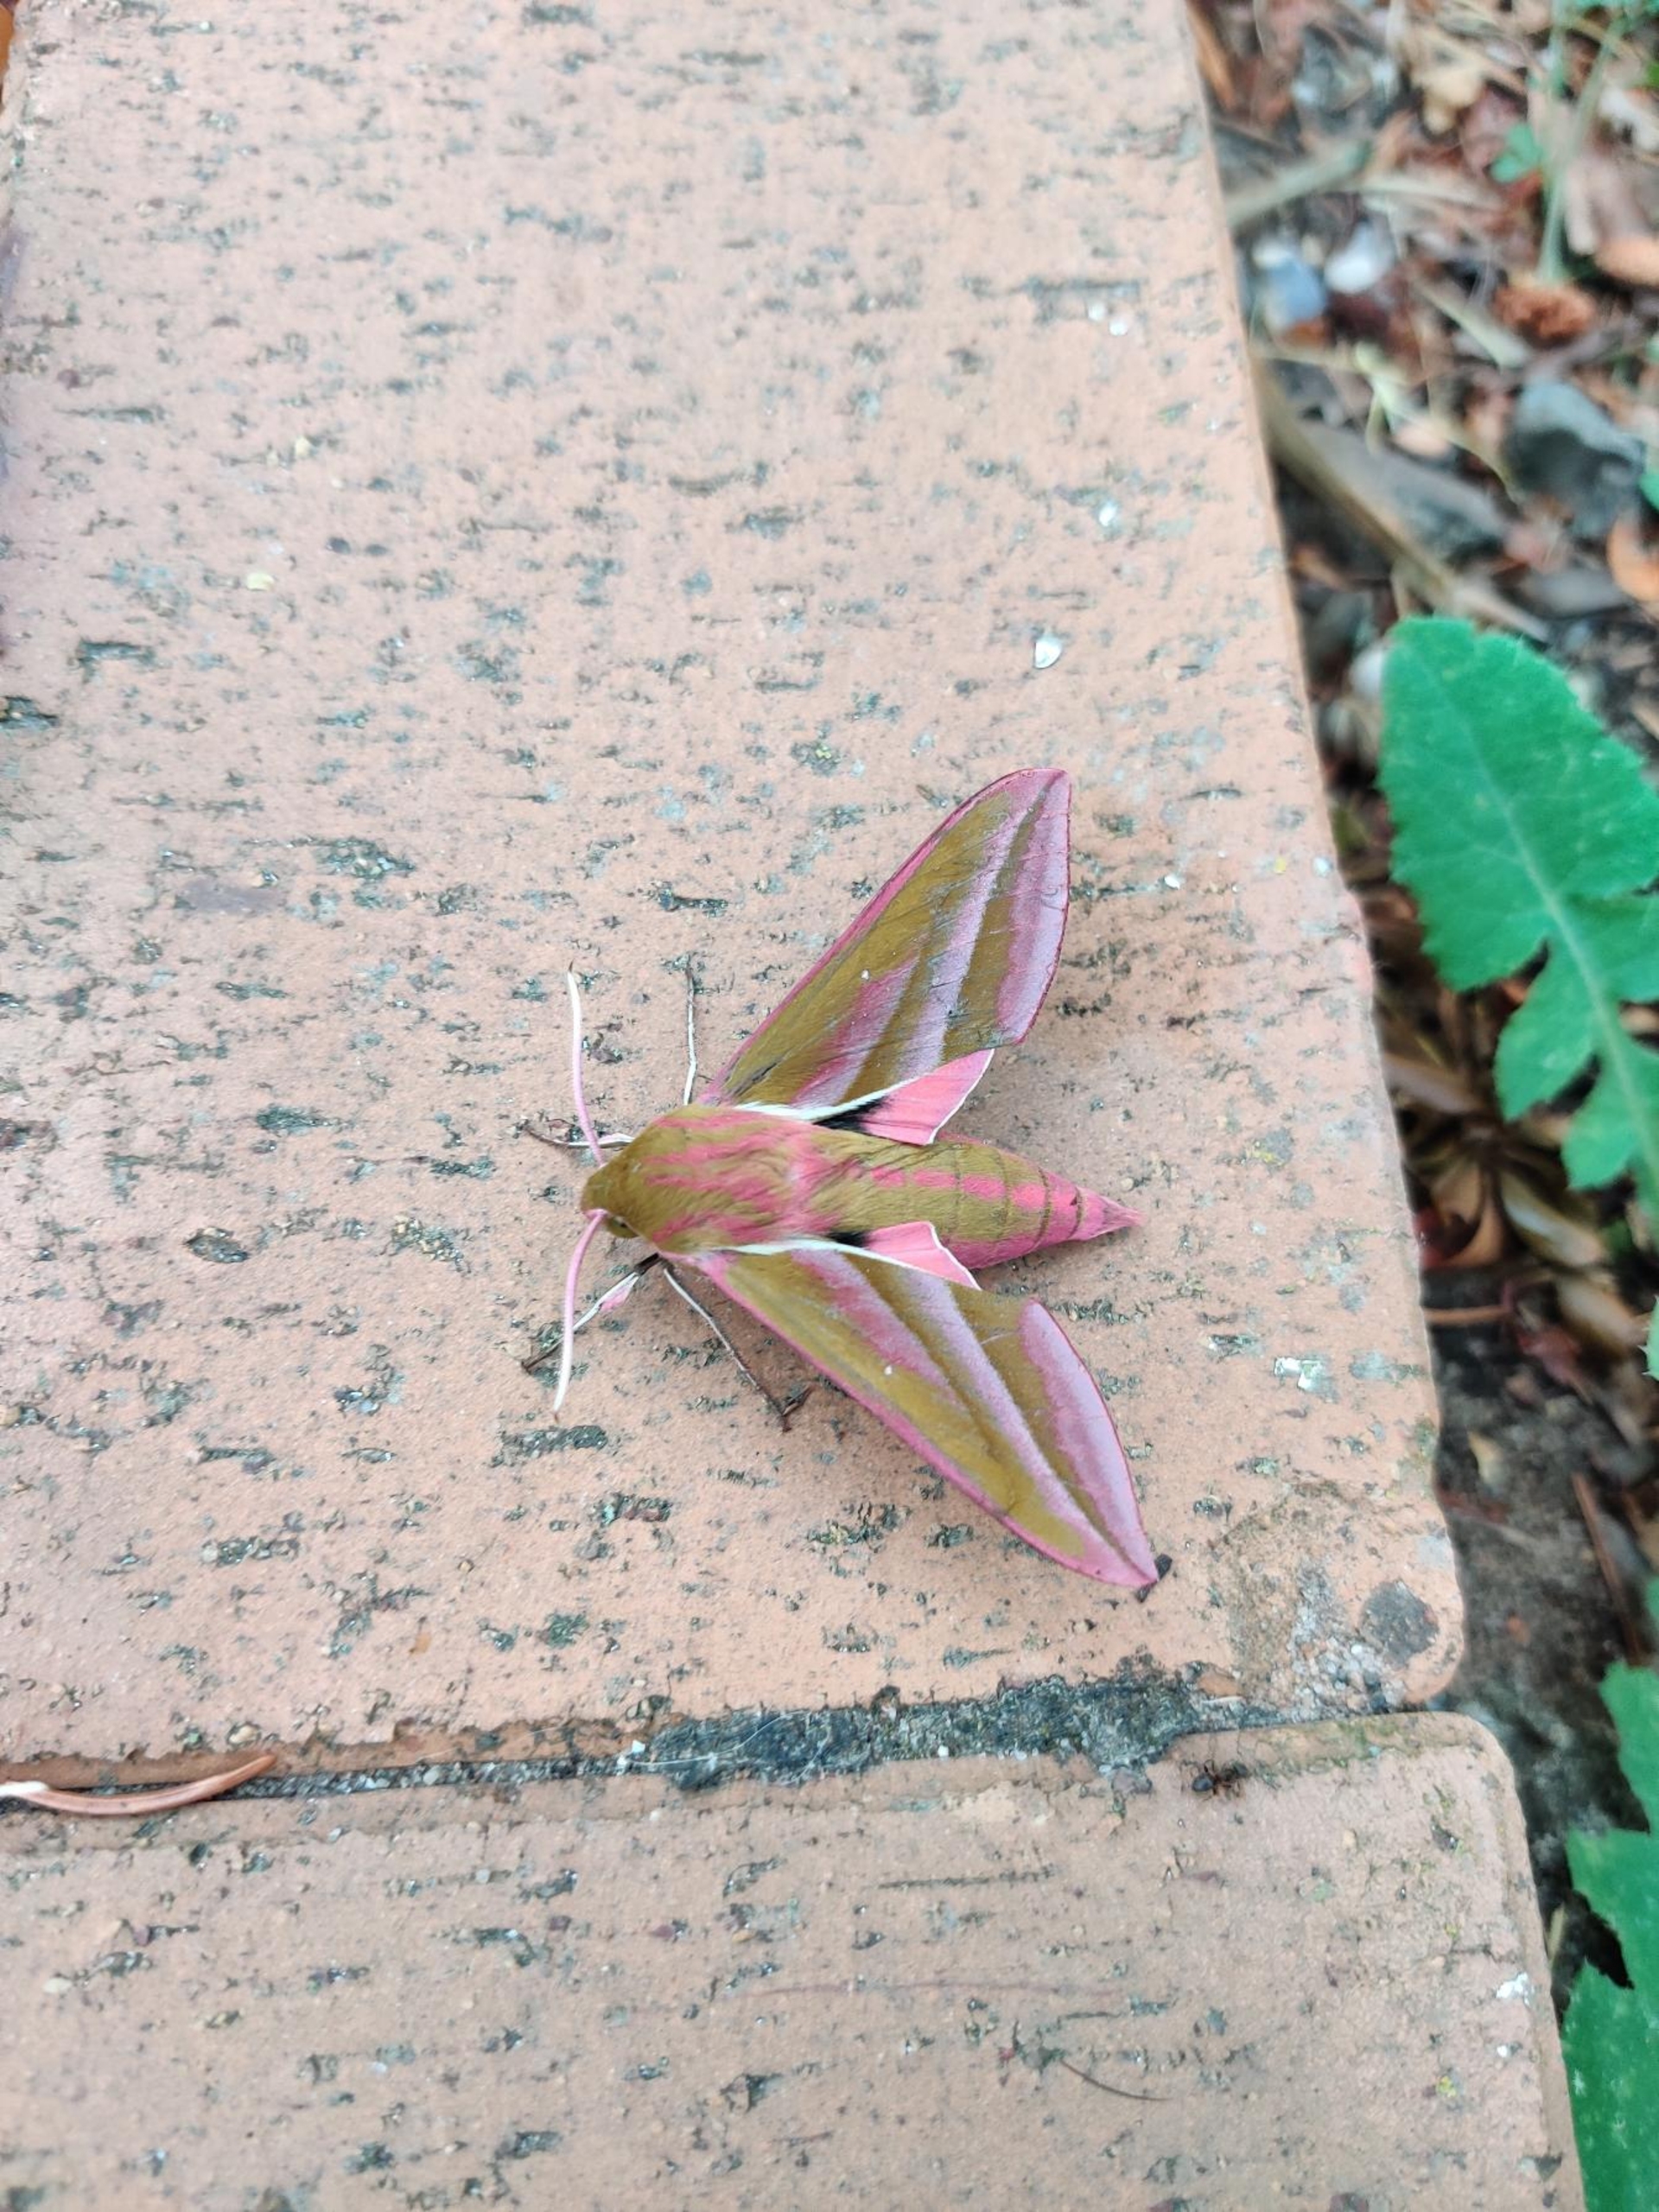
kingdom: Animalia
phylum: Arthropoda
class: Insecta
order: Lepidoptera
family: Sphingidae
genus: Deilephila
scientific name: Deilephila elpenor
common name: Dueurtsværmer
